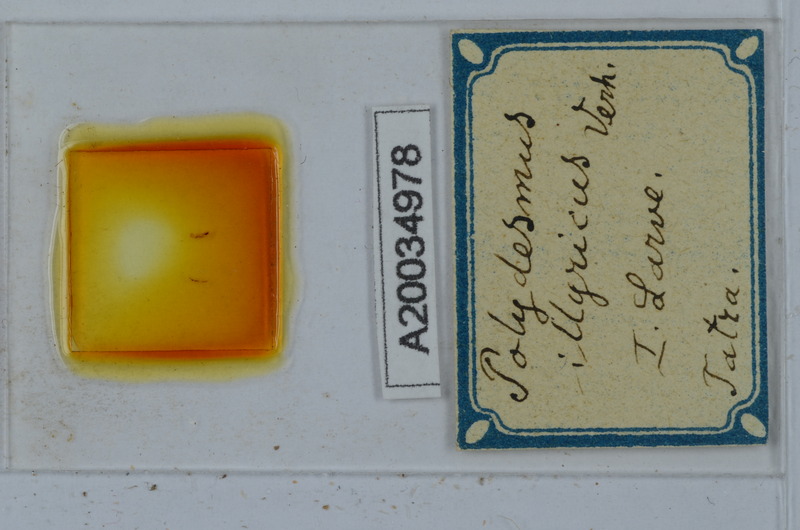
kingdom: Animalia
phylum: Arthropoda
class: Diplopoda
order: Polydesmida
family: Polydesmidae
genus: Polydesmus
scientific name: Polydesmus complanatus
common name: Flat-backed millipede
